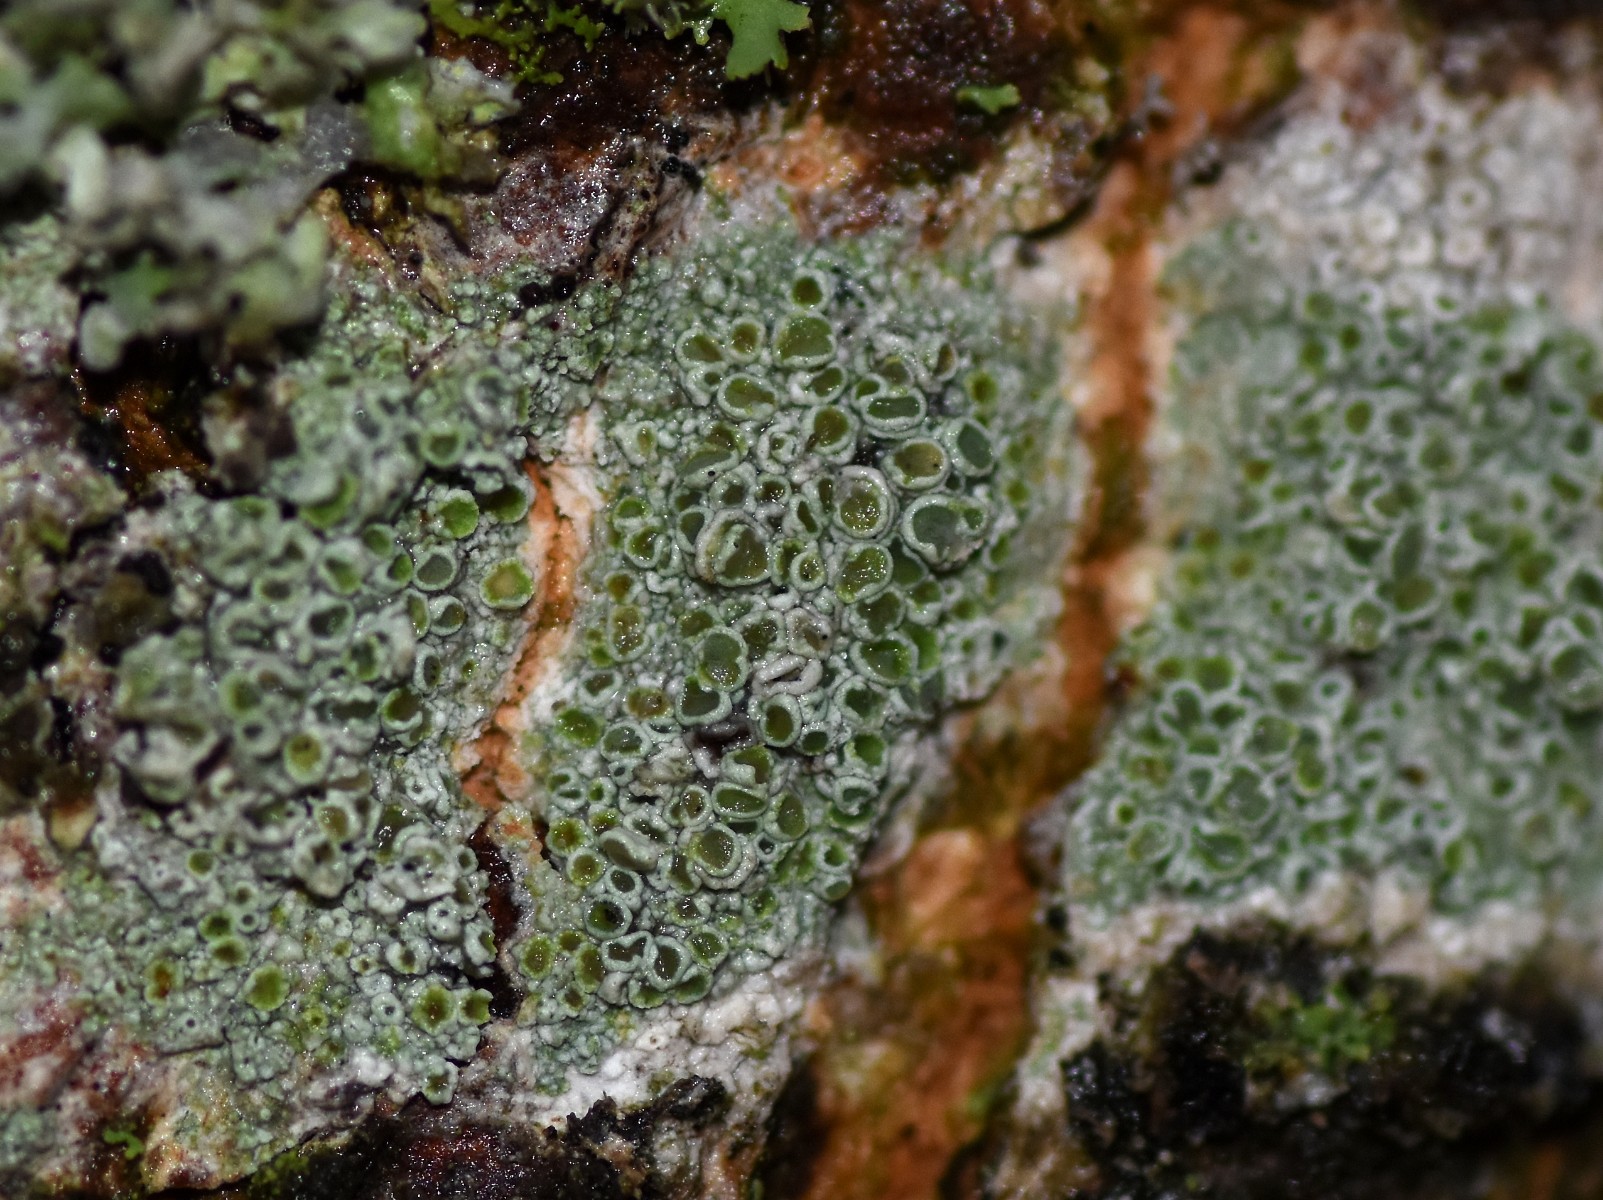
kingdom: Fungi
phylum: Ascomycota
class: Lecanoromycetes
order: Lecanorales
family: Lecanoraceae
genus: Lecanora
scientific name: Lecanora chlarotera
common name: brun kantskivelav
